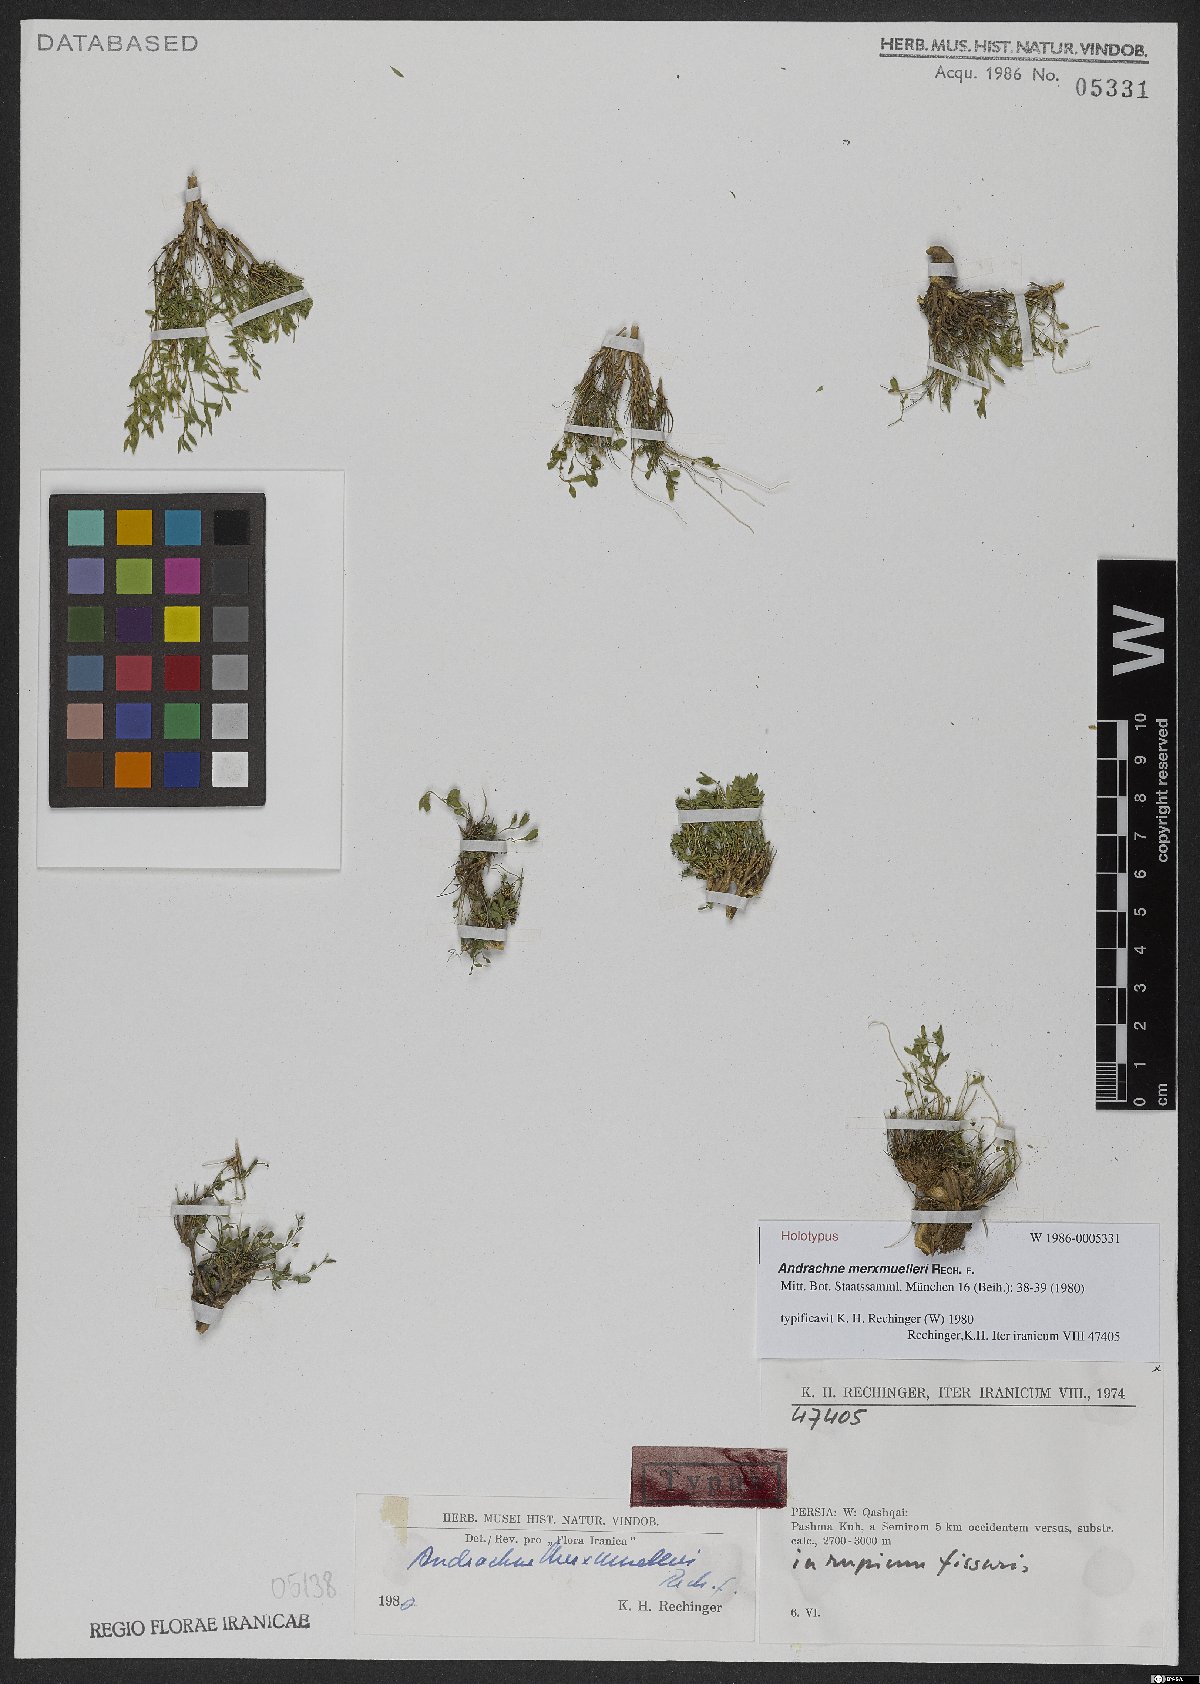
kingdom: Plantae
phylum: Tracheophyta
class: Magnoliopsida
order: Malpighiales
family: Phyllanthaceae
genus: Andrachne
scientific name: Andrachne merxmuelleri
